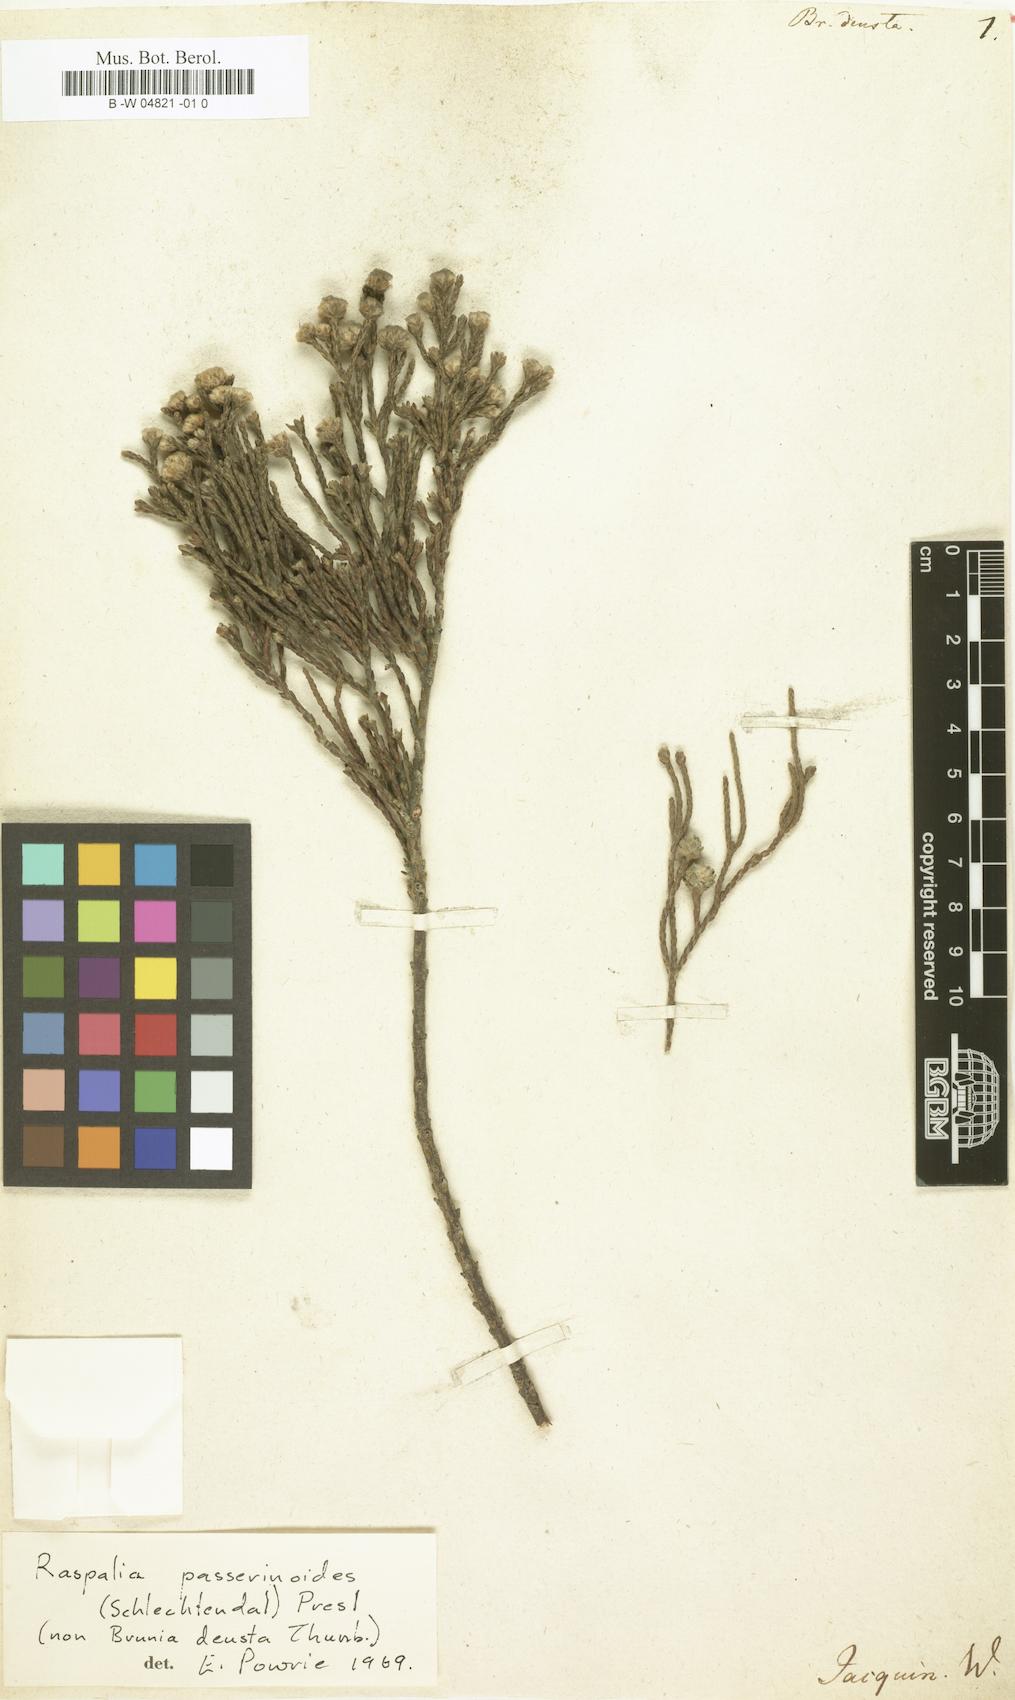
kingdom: Plantae
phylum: Tracheophyta
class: Magnoliopsida
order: Bruniales
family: Bruniaceae
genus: Brunia
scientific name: Brunia
